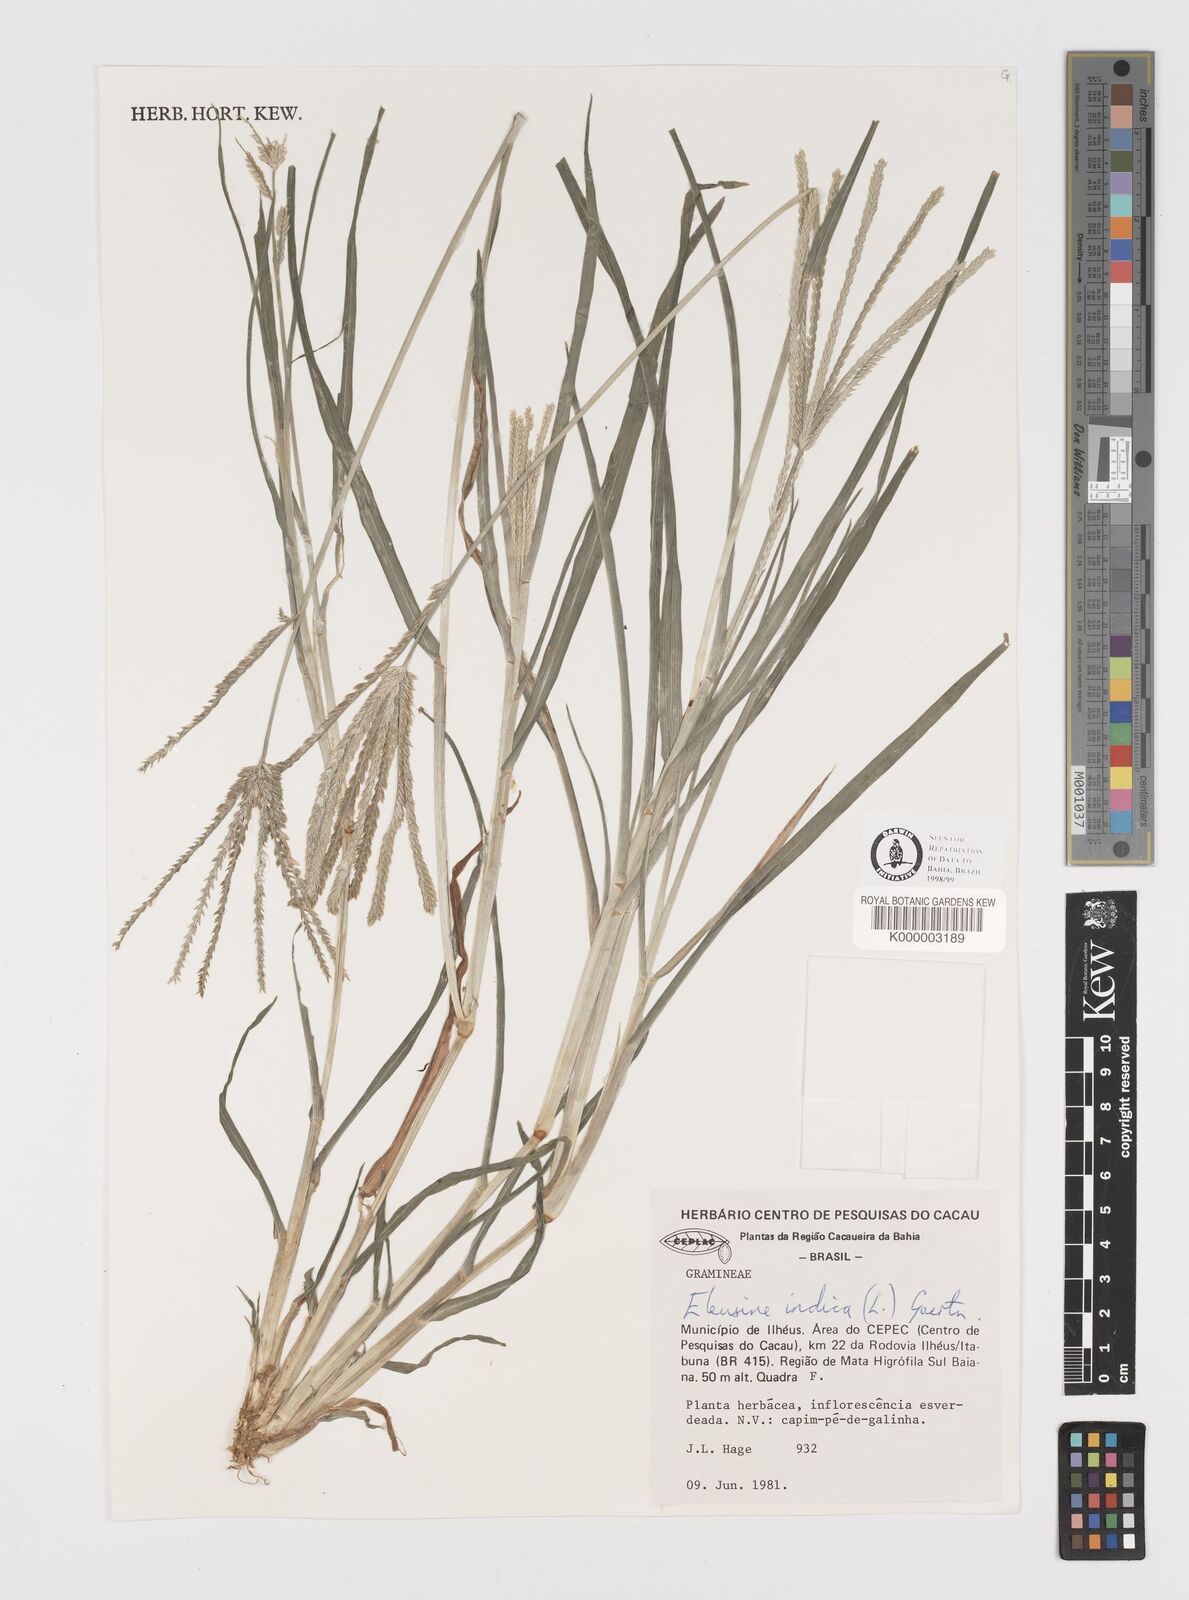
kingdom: Plantae
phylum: Tracheophyta
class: Liliopsida
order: Poales
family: Poaceae
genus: Eleusine
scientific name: Eleusine indica
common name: Yard-grass
